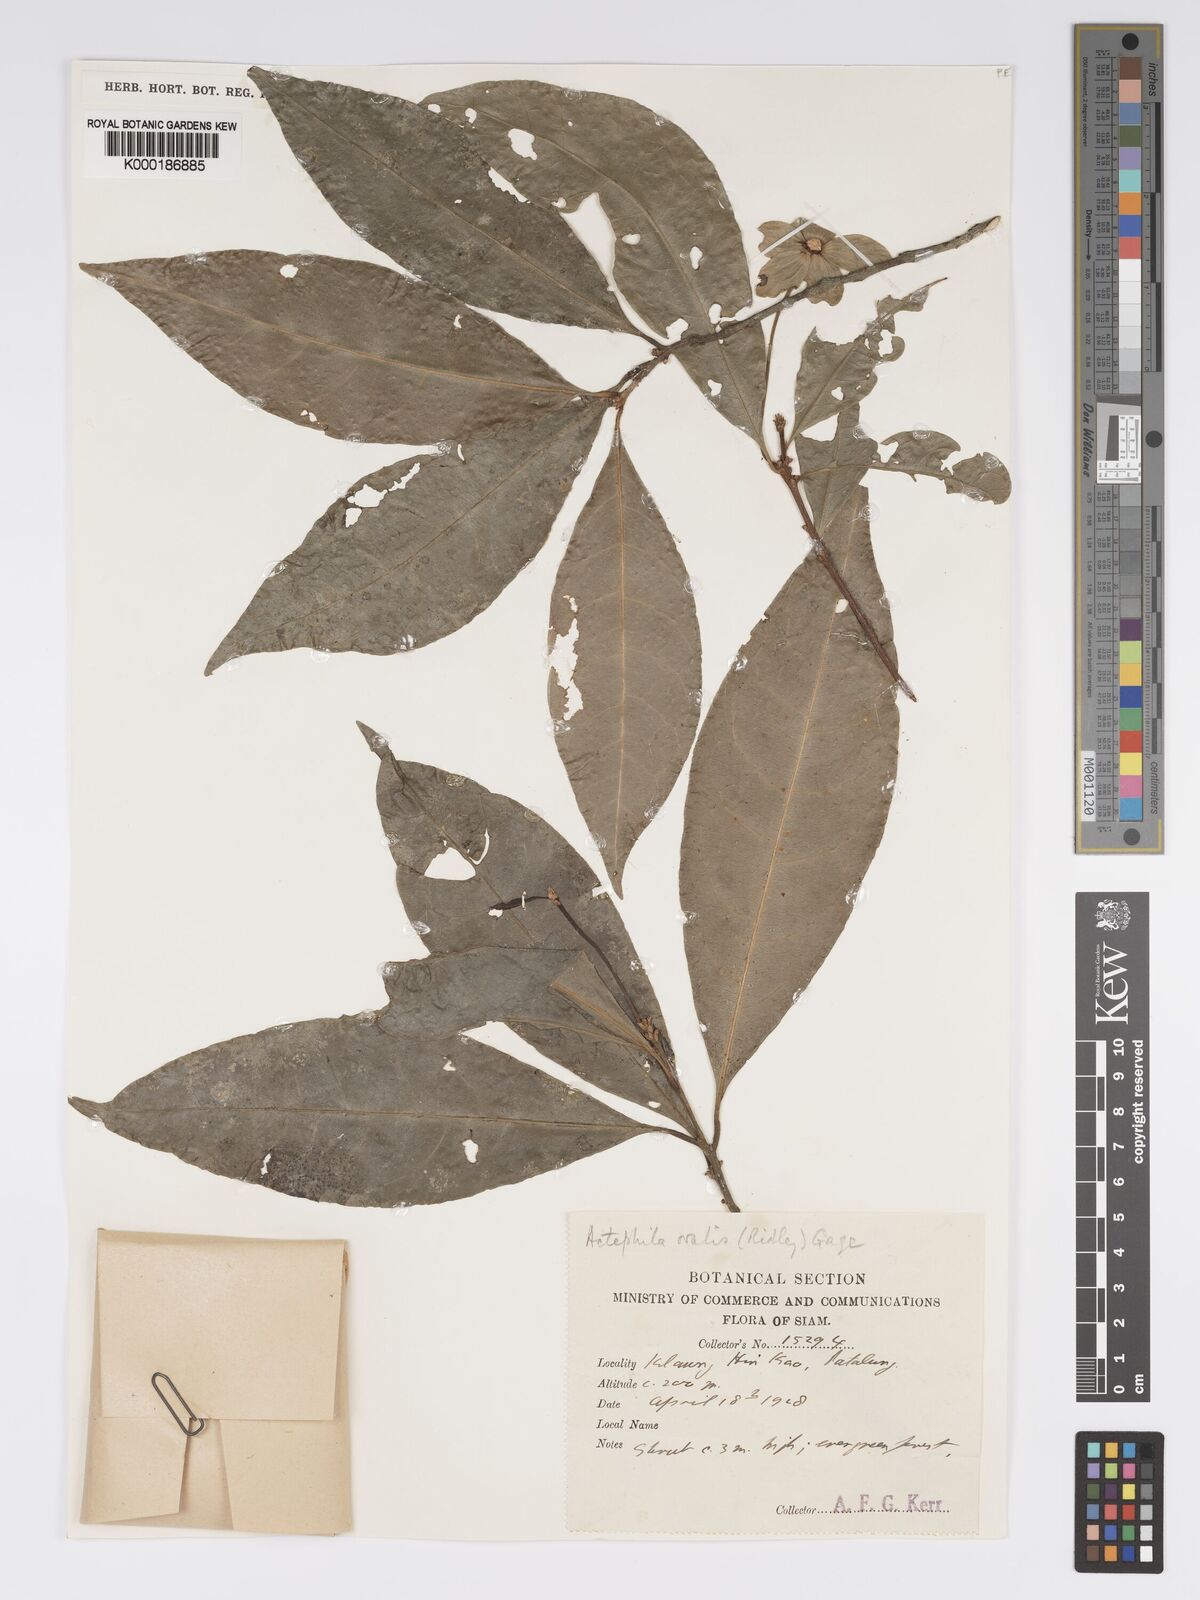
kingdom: Plantae
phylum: Tracheophyta
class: Magnoliopsida
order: Malpighiales
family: Phyllanthaceae
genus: Actephila
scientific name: Actephila ovalis
